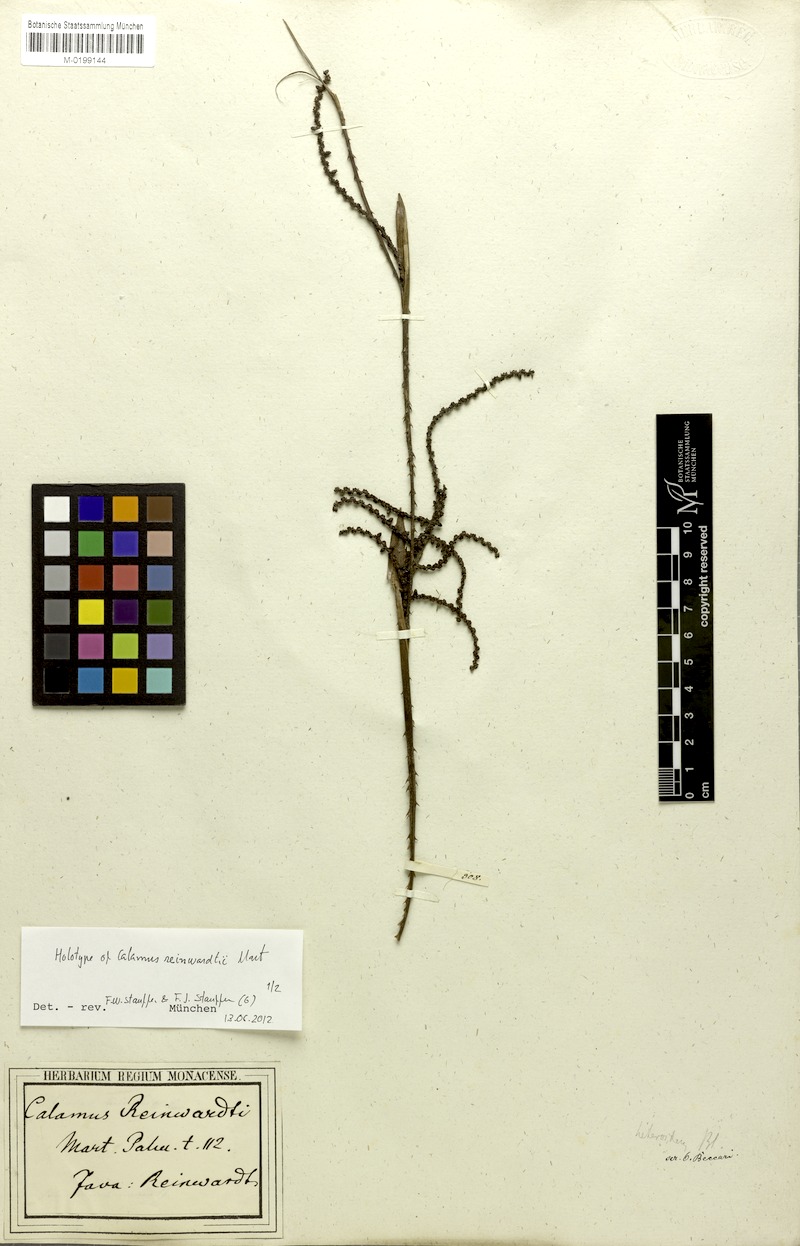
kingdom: Plantae
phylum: Tracheophyta
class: Liliopsida
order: Arecales
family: Arecaceae
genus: Calamus
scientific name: Calamus reinwardtii
